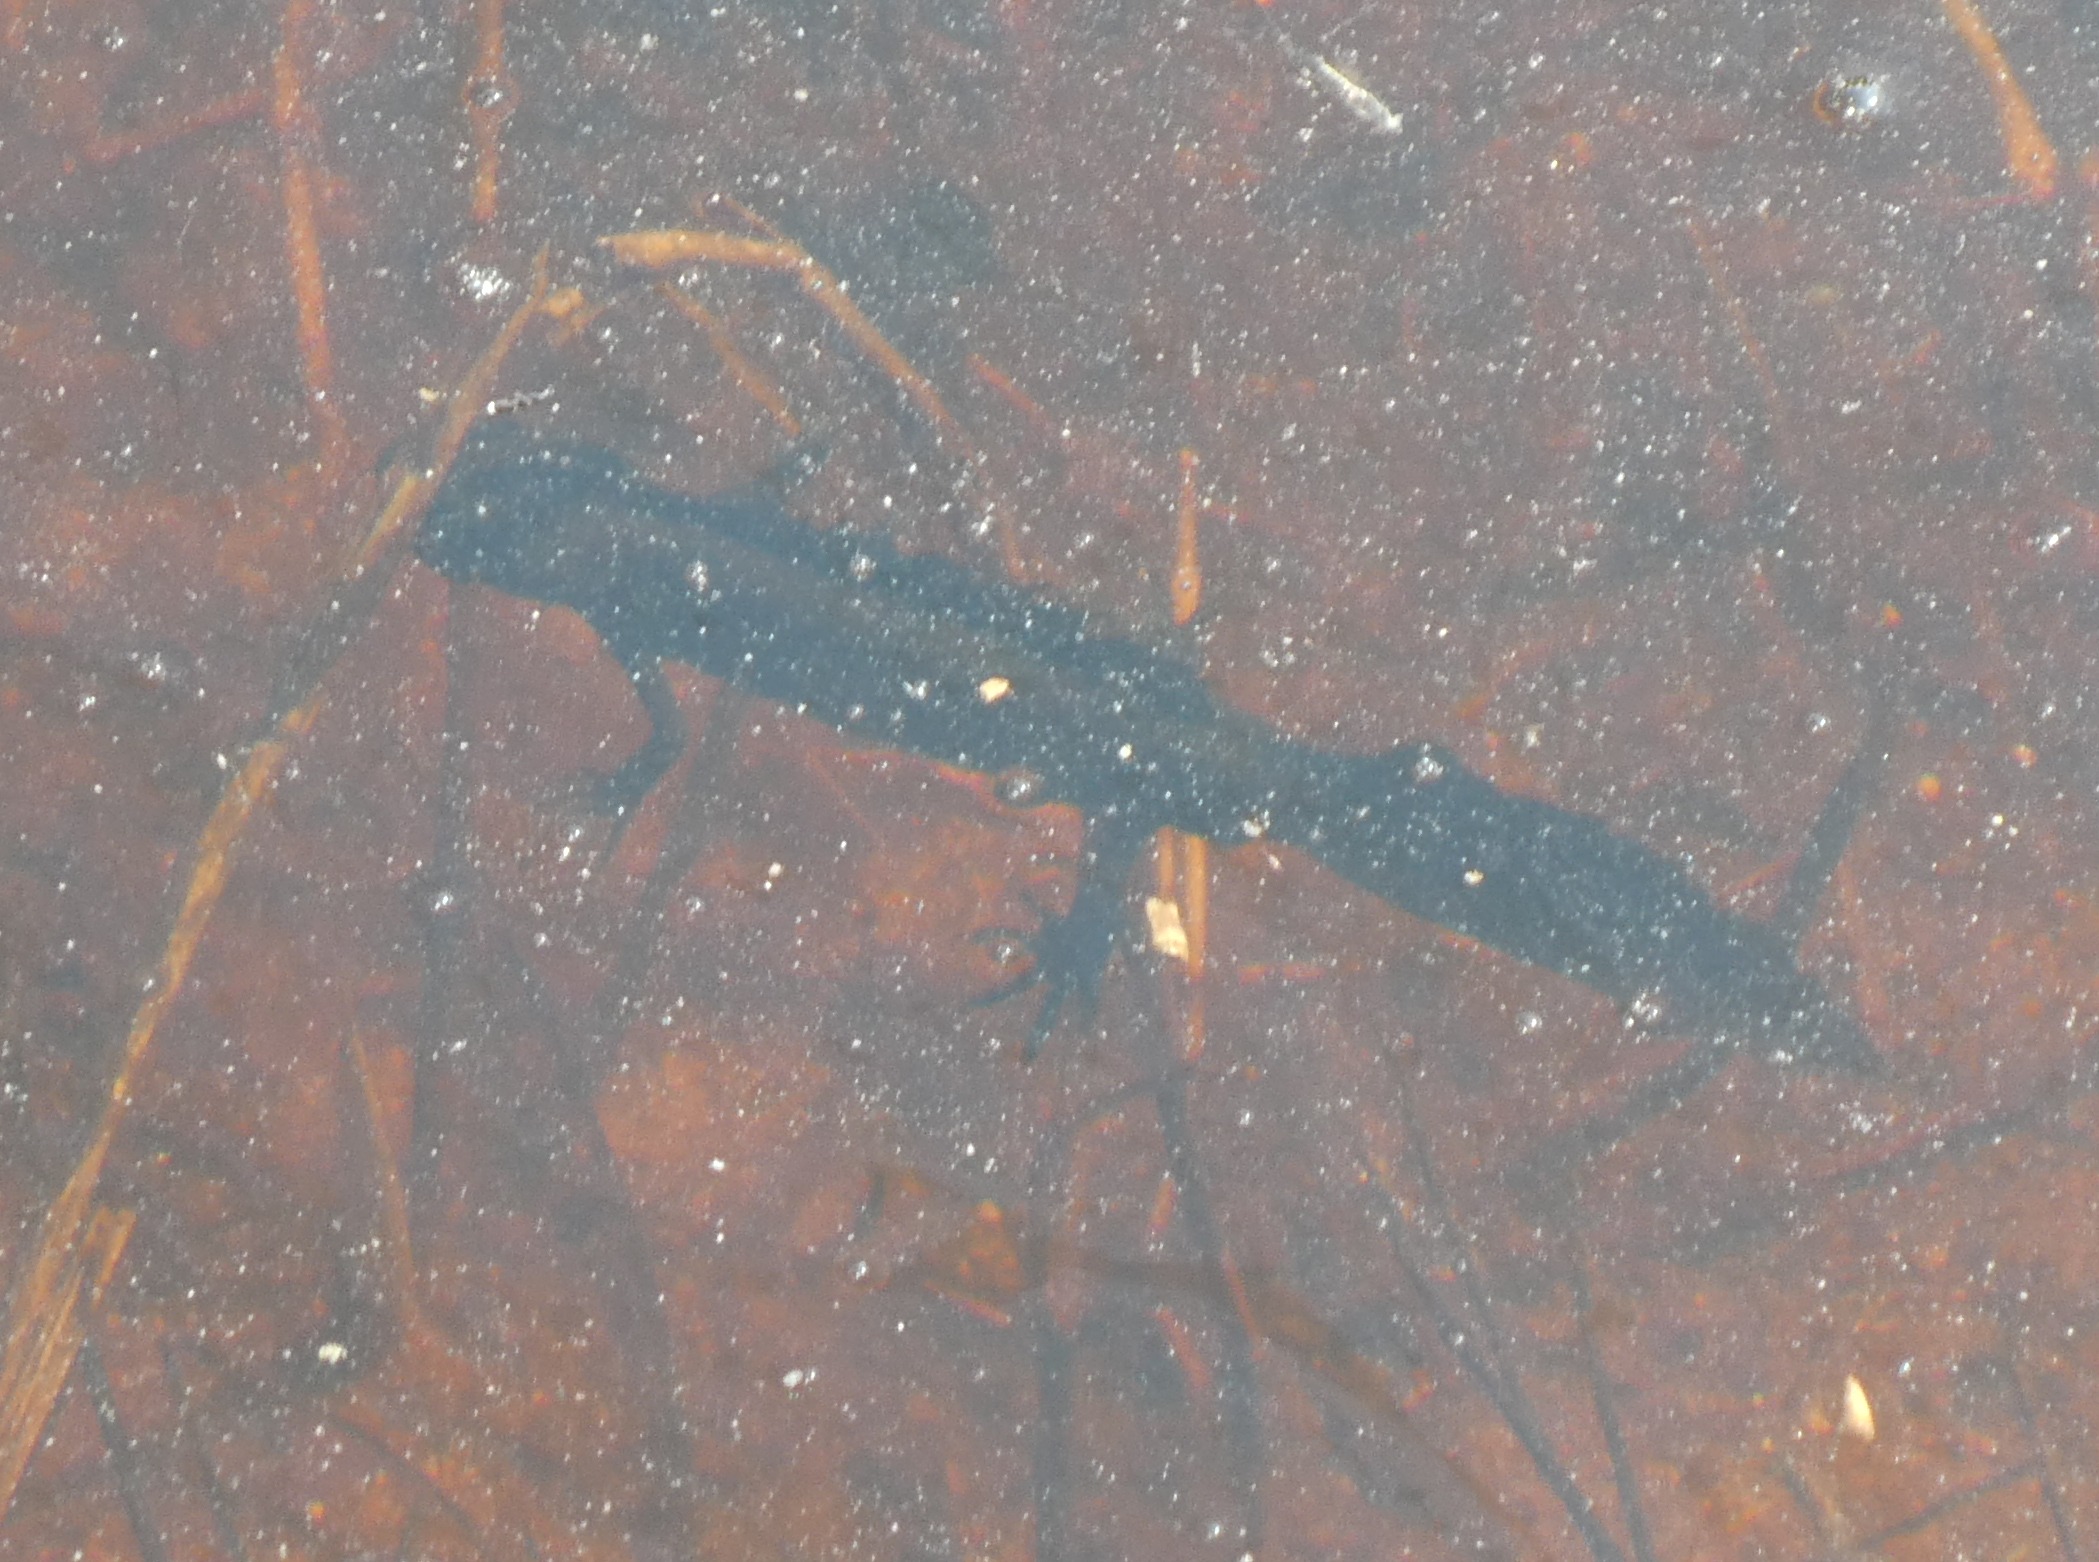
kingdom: Animalia
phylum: Chordata
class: Amphibia
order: Caudata
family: Salamandridae
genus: Triturus
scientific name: Triturus cristatus
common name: Stor vandsalamander
